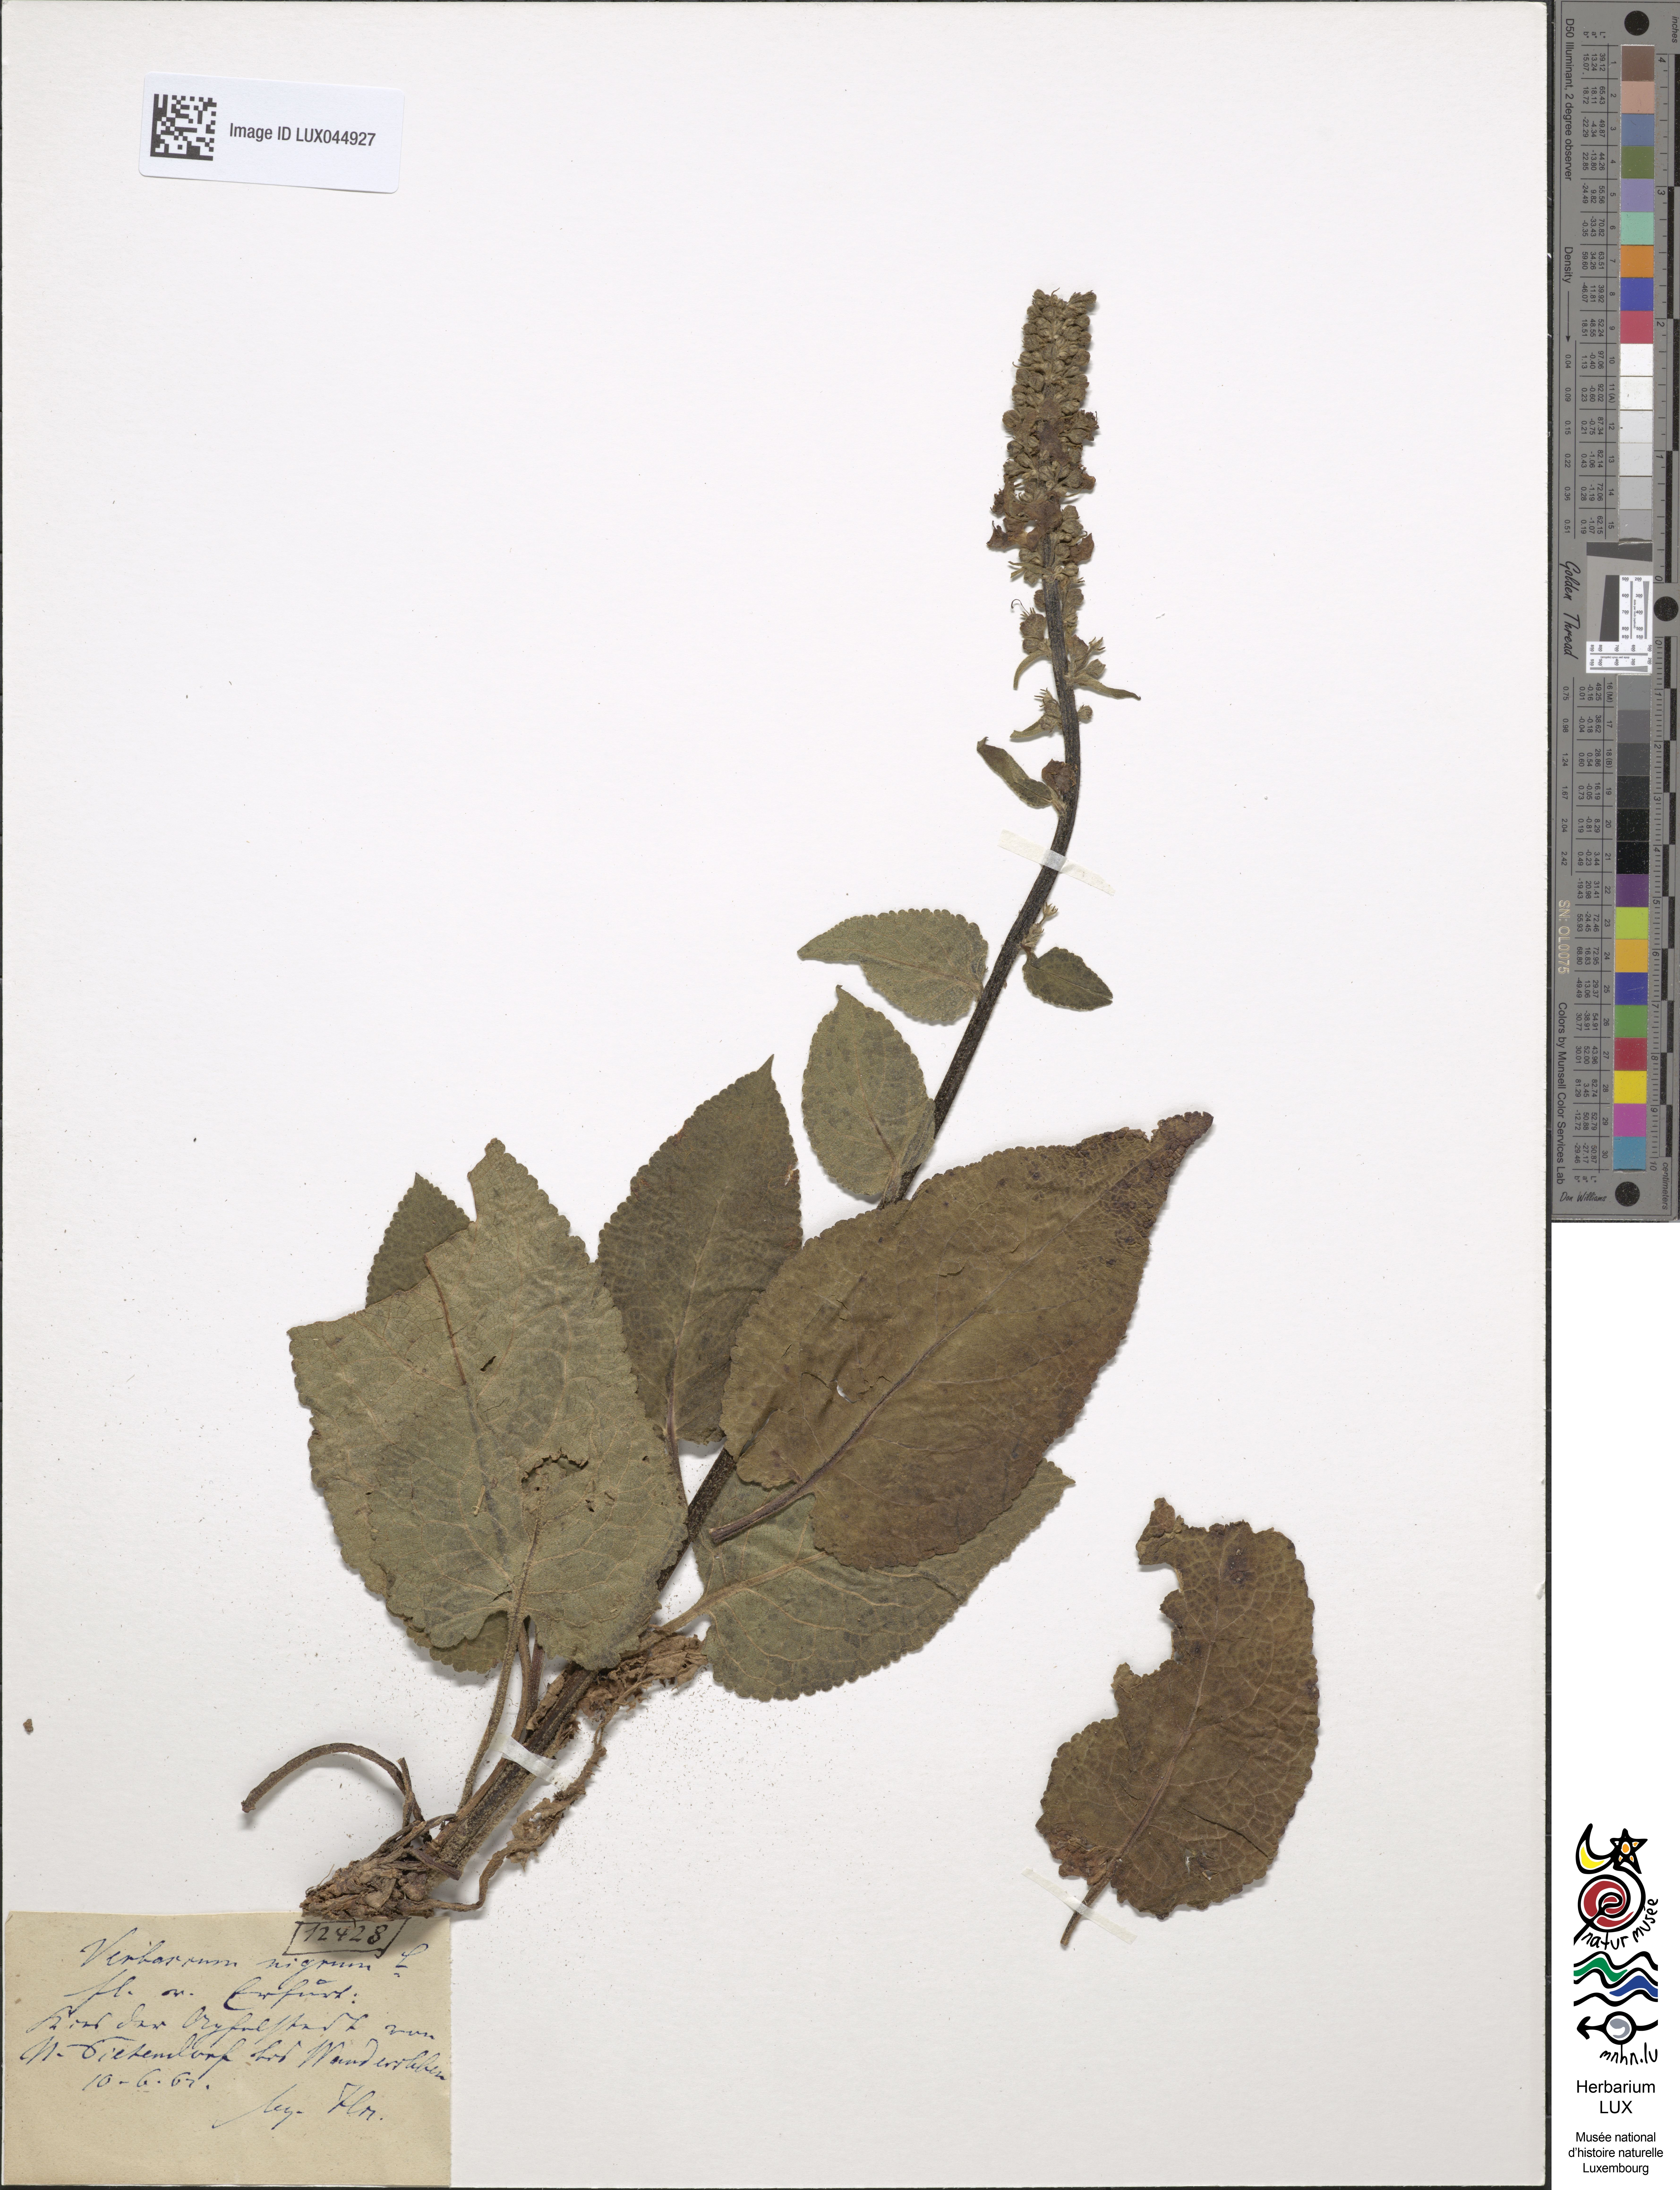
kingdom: Plantae
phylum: Tracheophyta
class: Magnoliopsida
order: Lamiales
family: Scrophulariaceae
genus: Verbascum
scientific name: Verbascum nigrum
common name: Dark mullein
